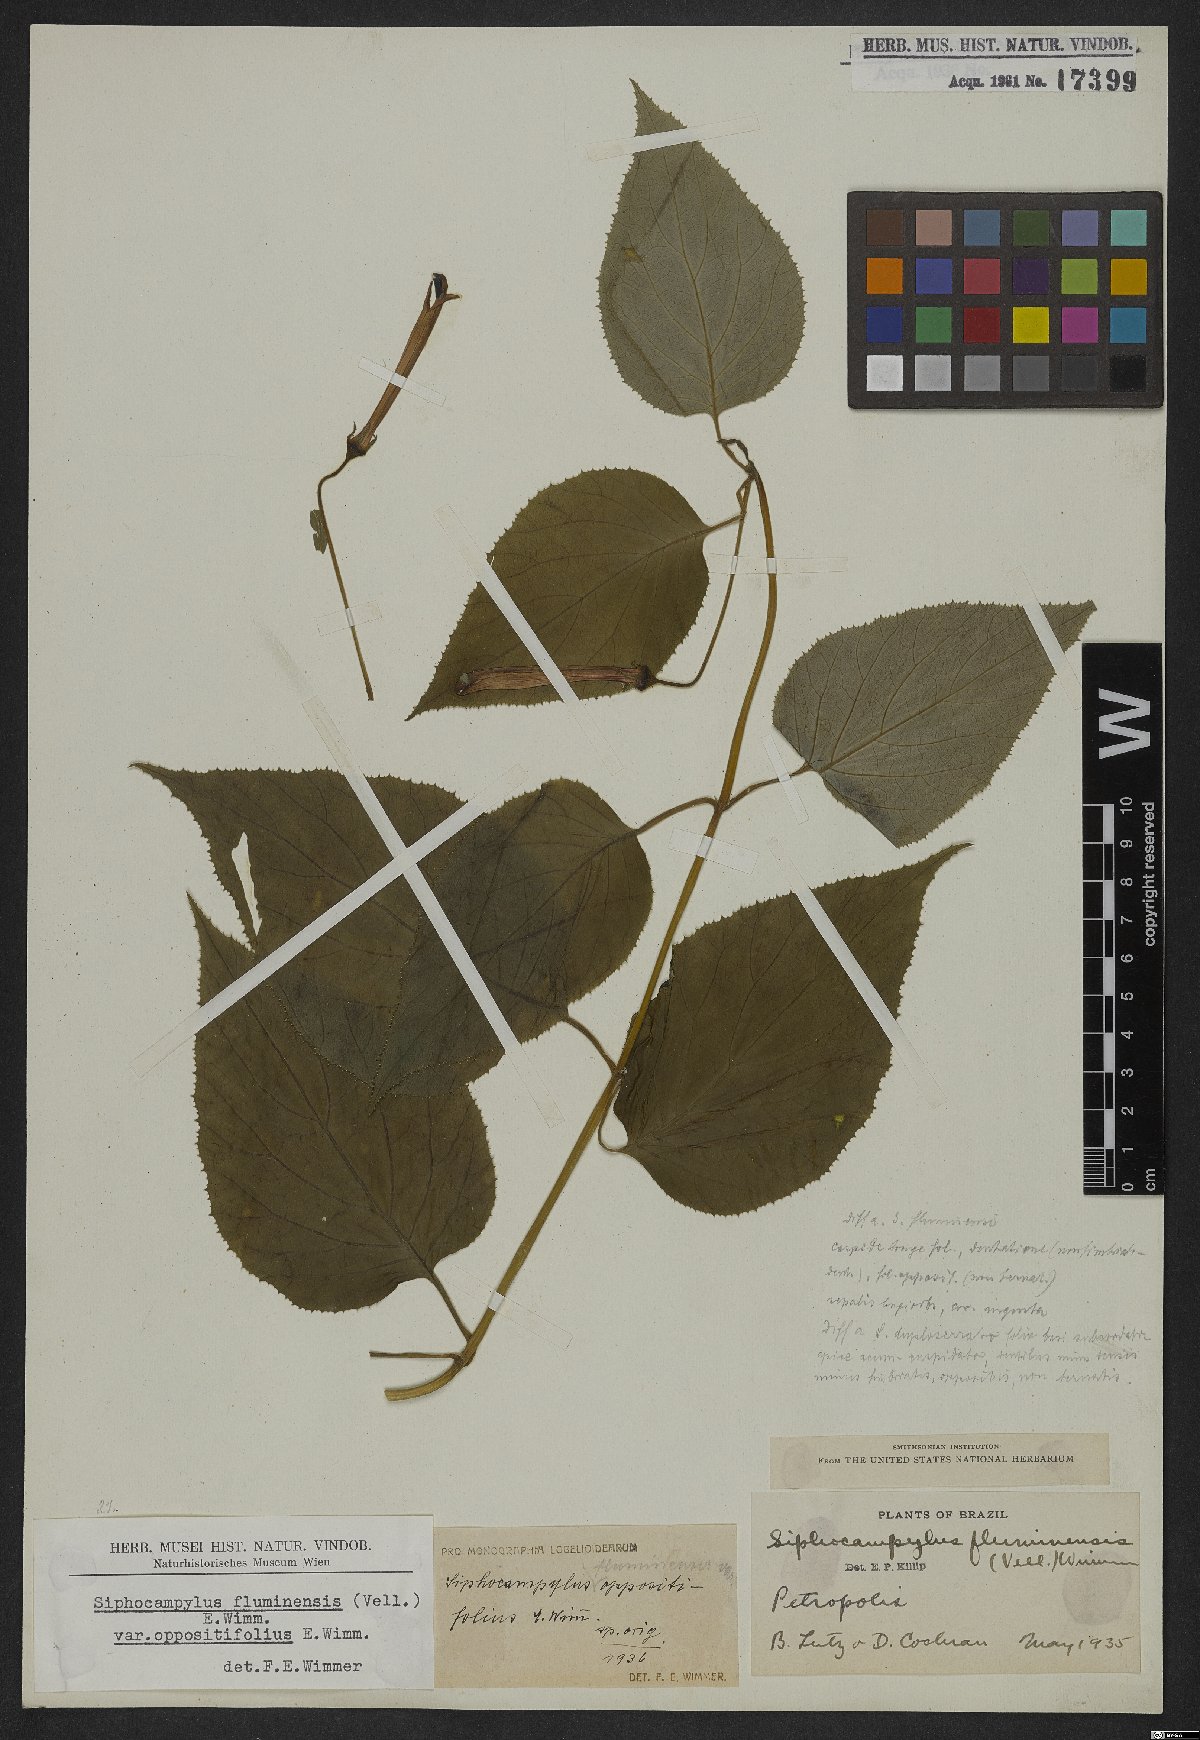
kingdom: Plantae
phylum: Tracheophyta
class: Magnoliopsida
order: Asterales
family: Campanulaceae
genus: Siphocampylus
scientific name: Siphocampylus fluminensis
